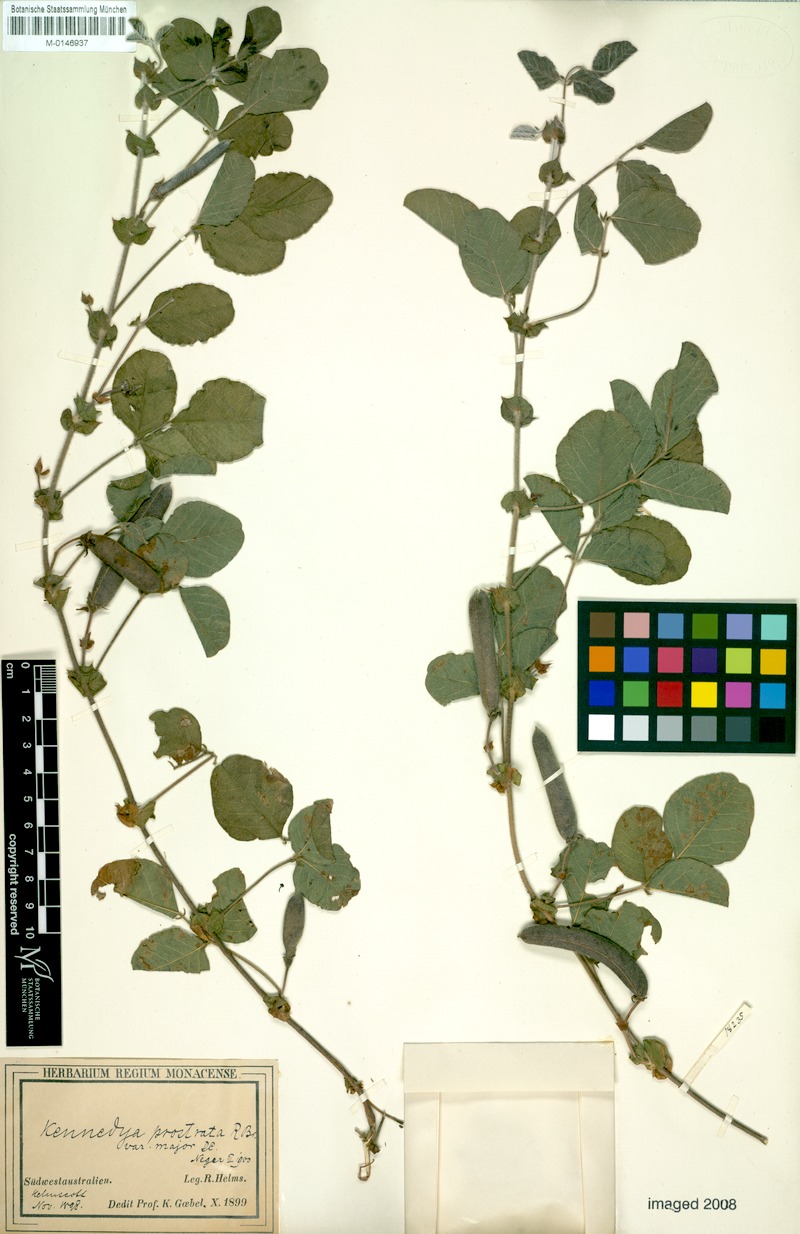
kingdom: Plantae
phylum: Tracheophyta
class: Magnoliopsida
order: Fabales
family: Fabaceae
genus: Kennedia
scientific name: Kennedia prostrata
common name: Running-postman
